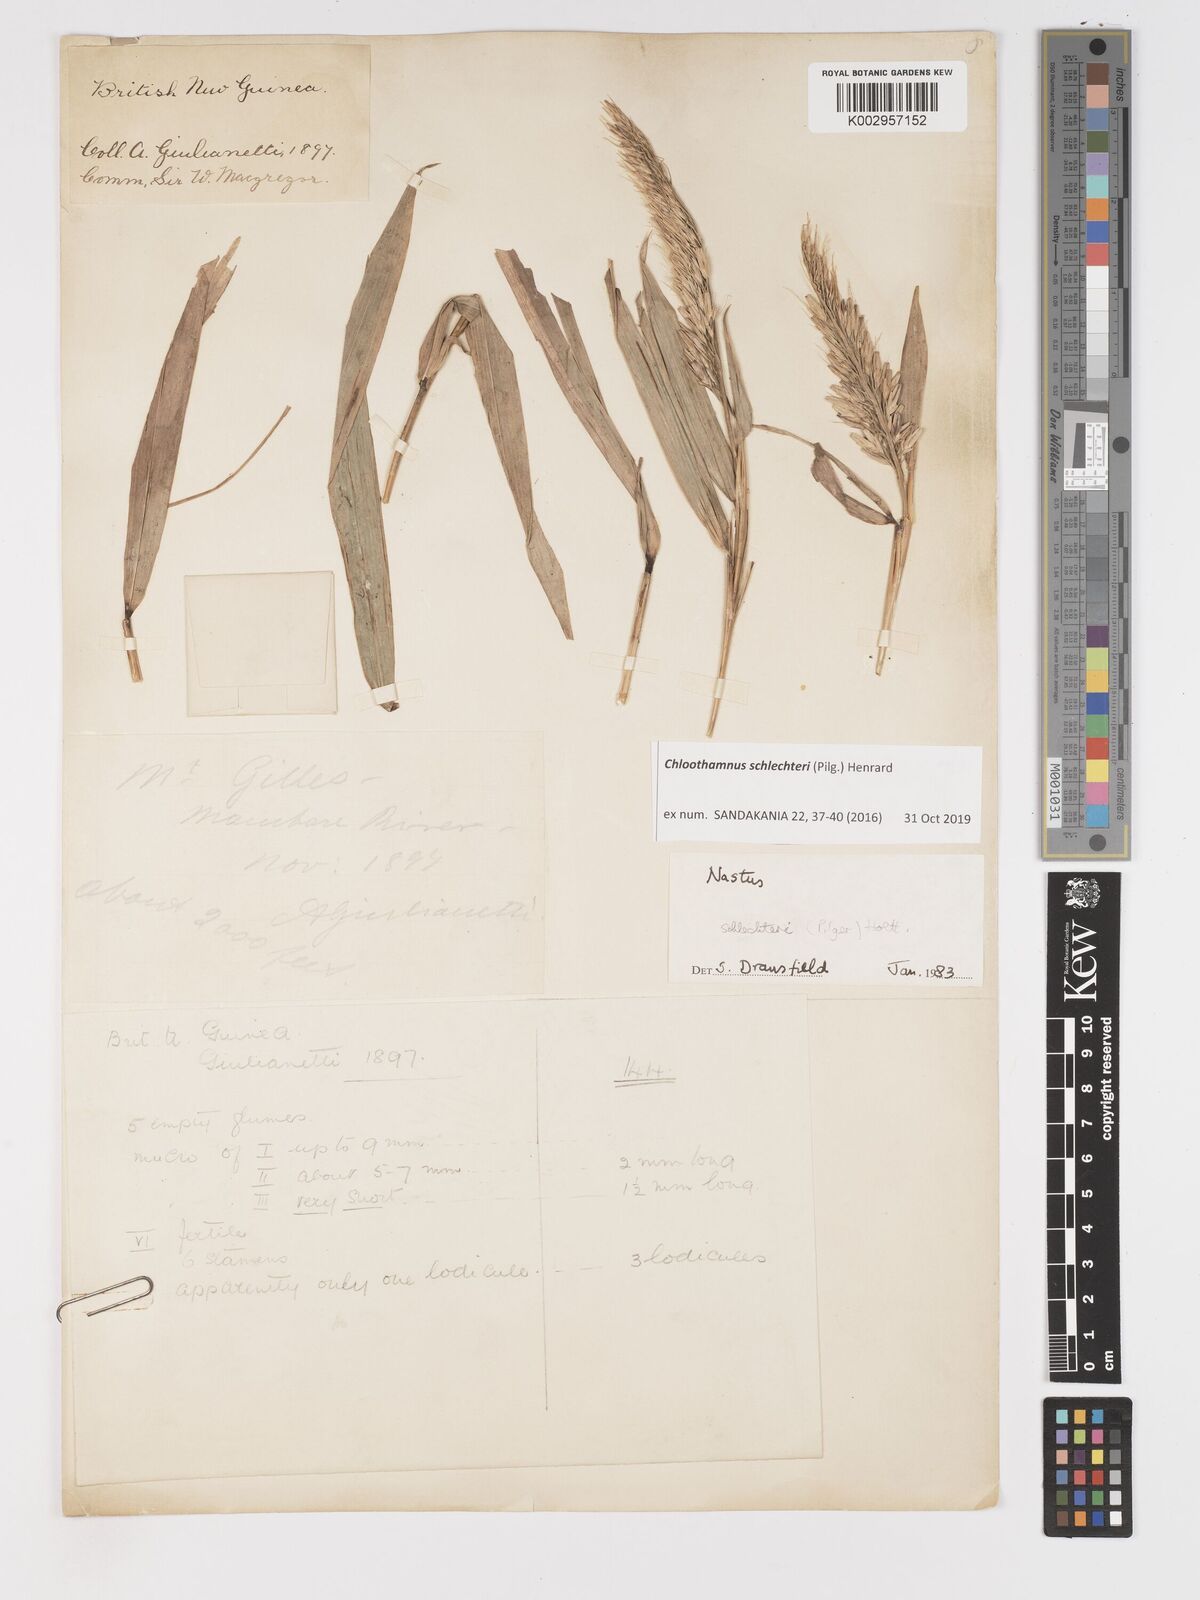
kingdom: Plantae
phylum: Tracheophyta
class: Liliopsida
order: Poales
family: Poaceae
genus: Chloothamnus
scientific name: Chloothamnus schlechteri
